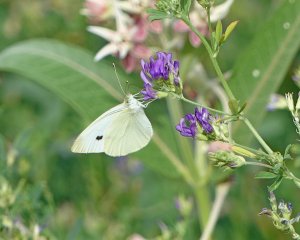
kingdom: Animalia
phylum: Arthropoda
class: Insecta
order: Lepidoptera
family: Pieridae
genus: Pieris
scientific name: Pieris rapae
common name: Cabbage White
